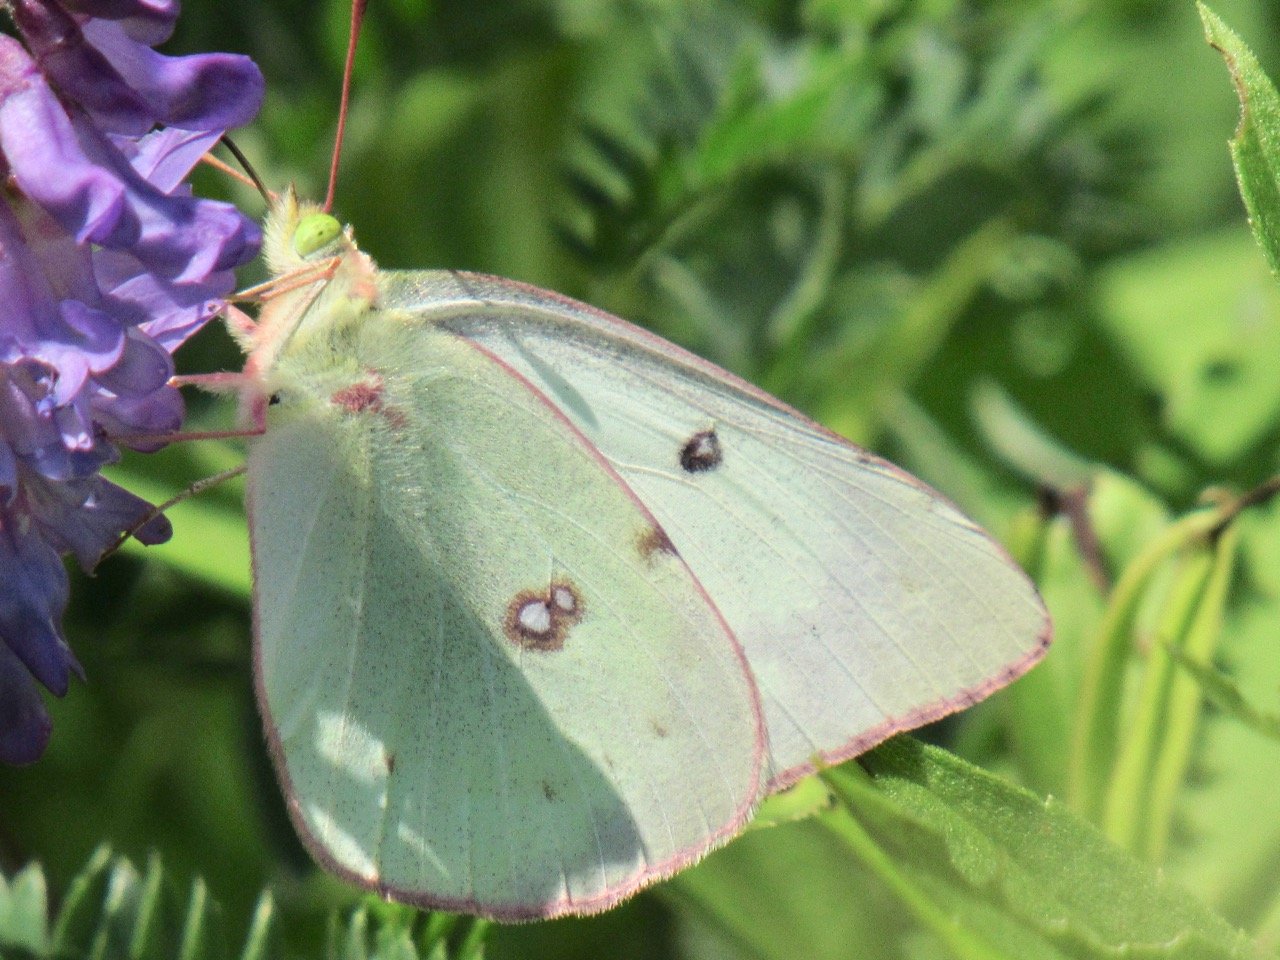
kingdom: Animalia
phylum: Arthropoda
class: Insecta
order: Lepidoptera
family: Pieridae
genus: Colias
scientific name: Colias philodice
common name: Clouded Sulphur
